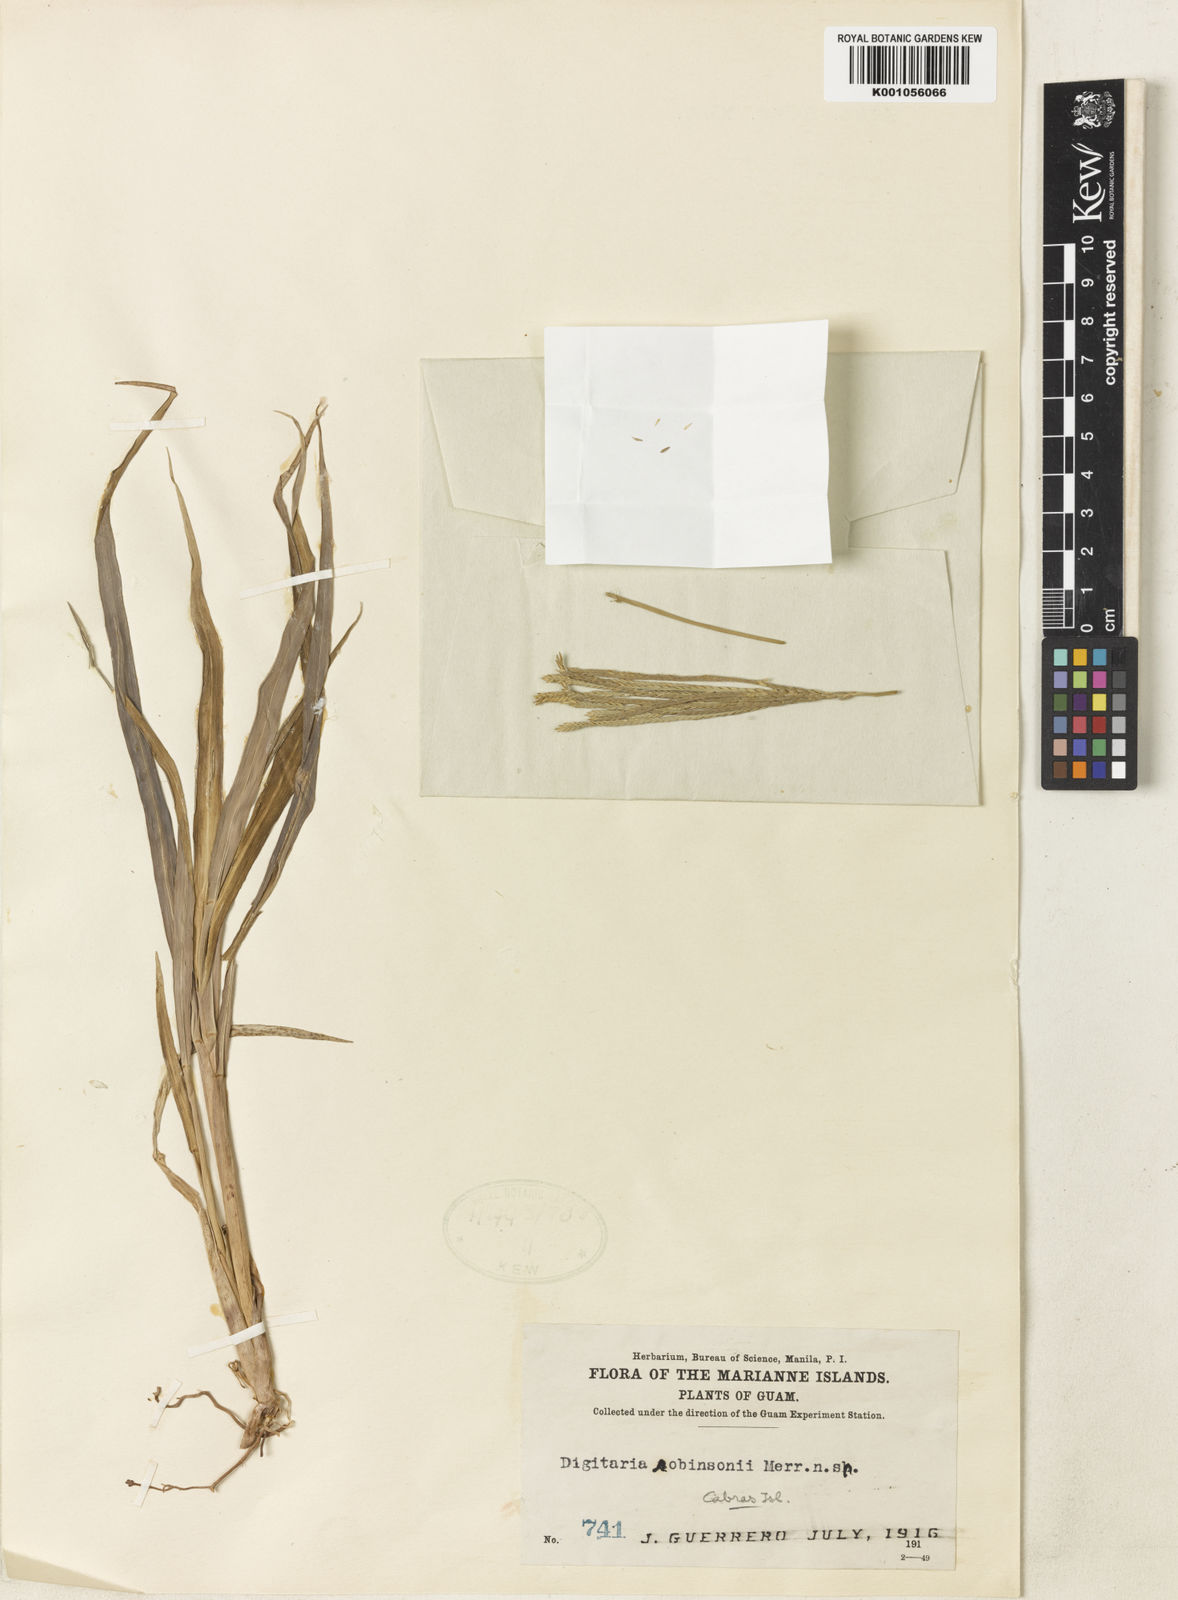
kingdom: Plantae
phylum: Tracheophyta
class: Liliopsida
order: Poales
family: Poaceae
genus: Digitaria
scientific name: Digitaria gaudichaudii
